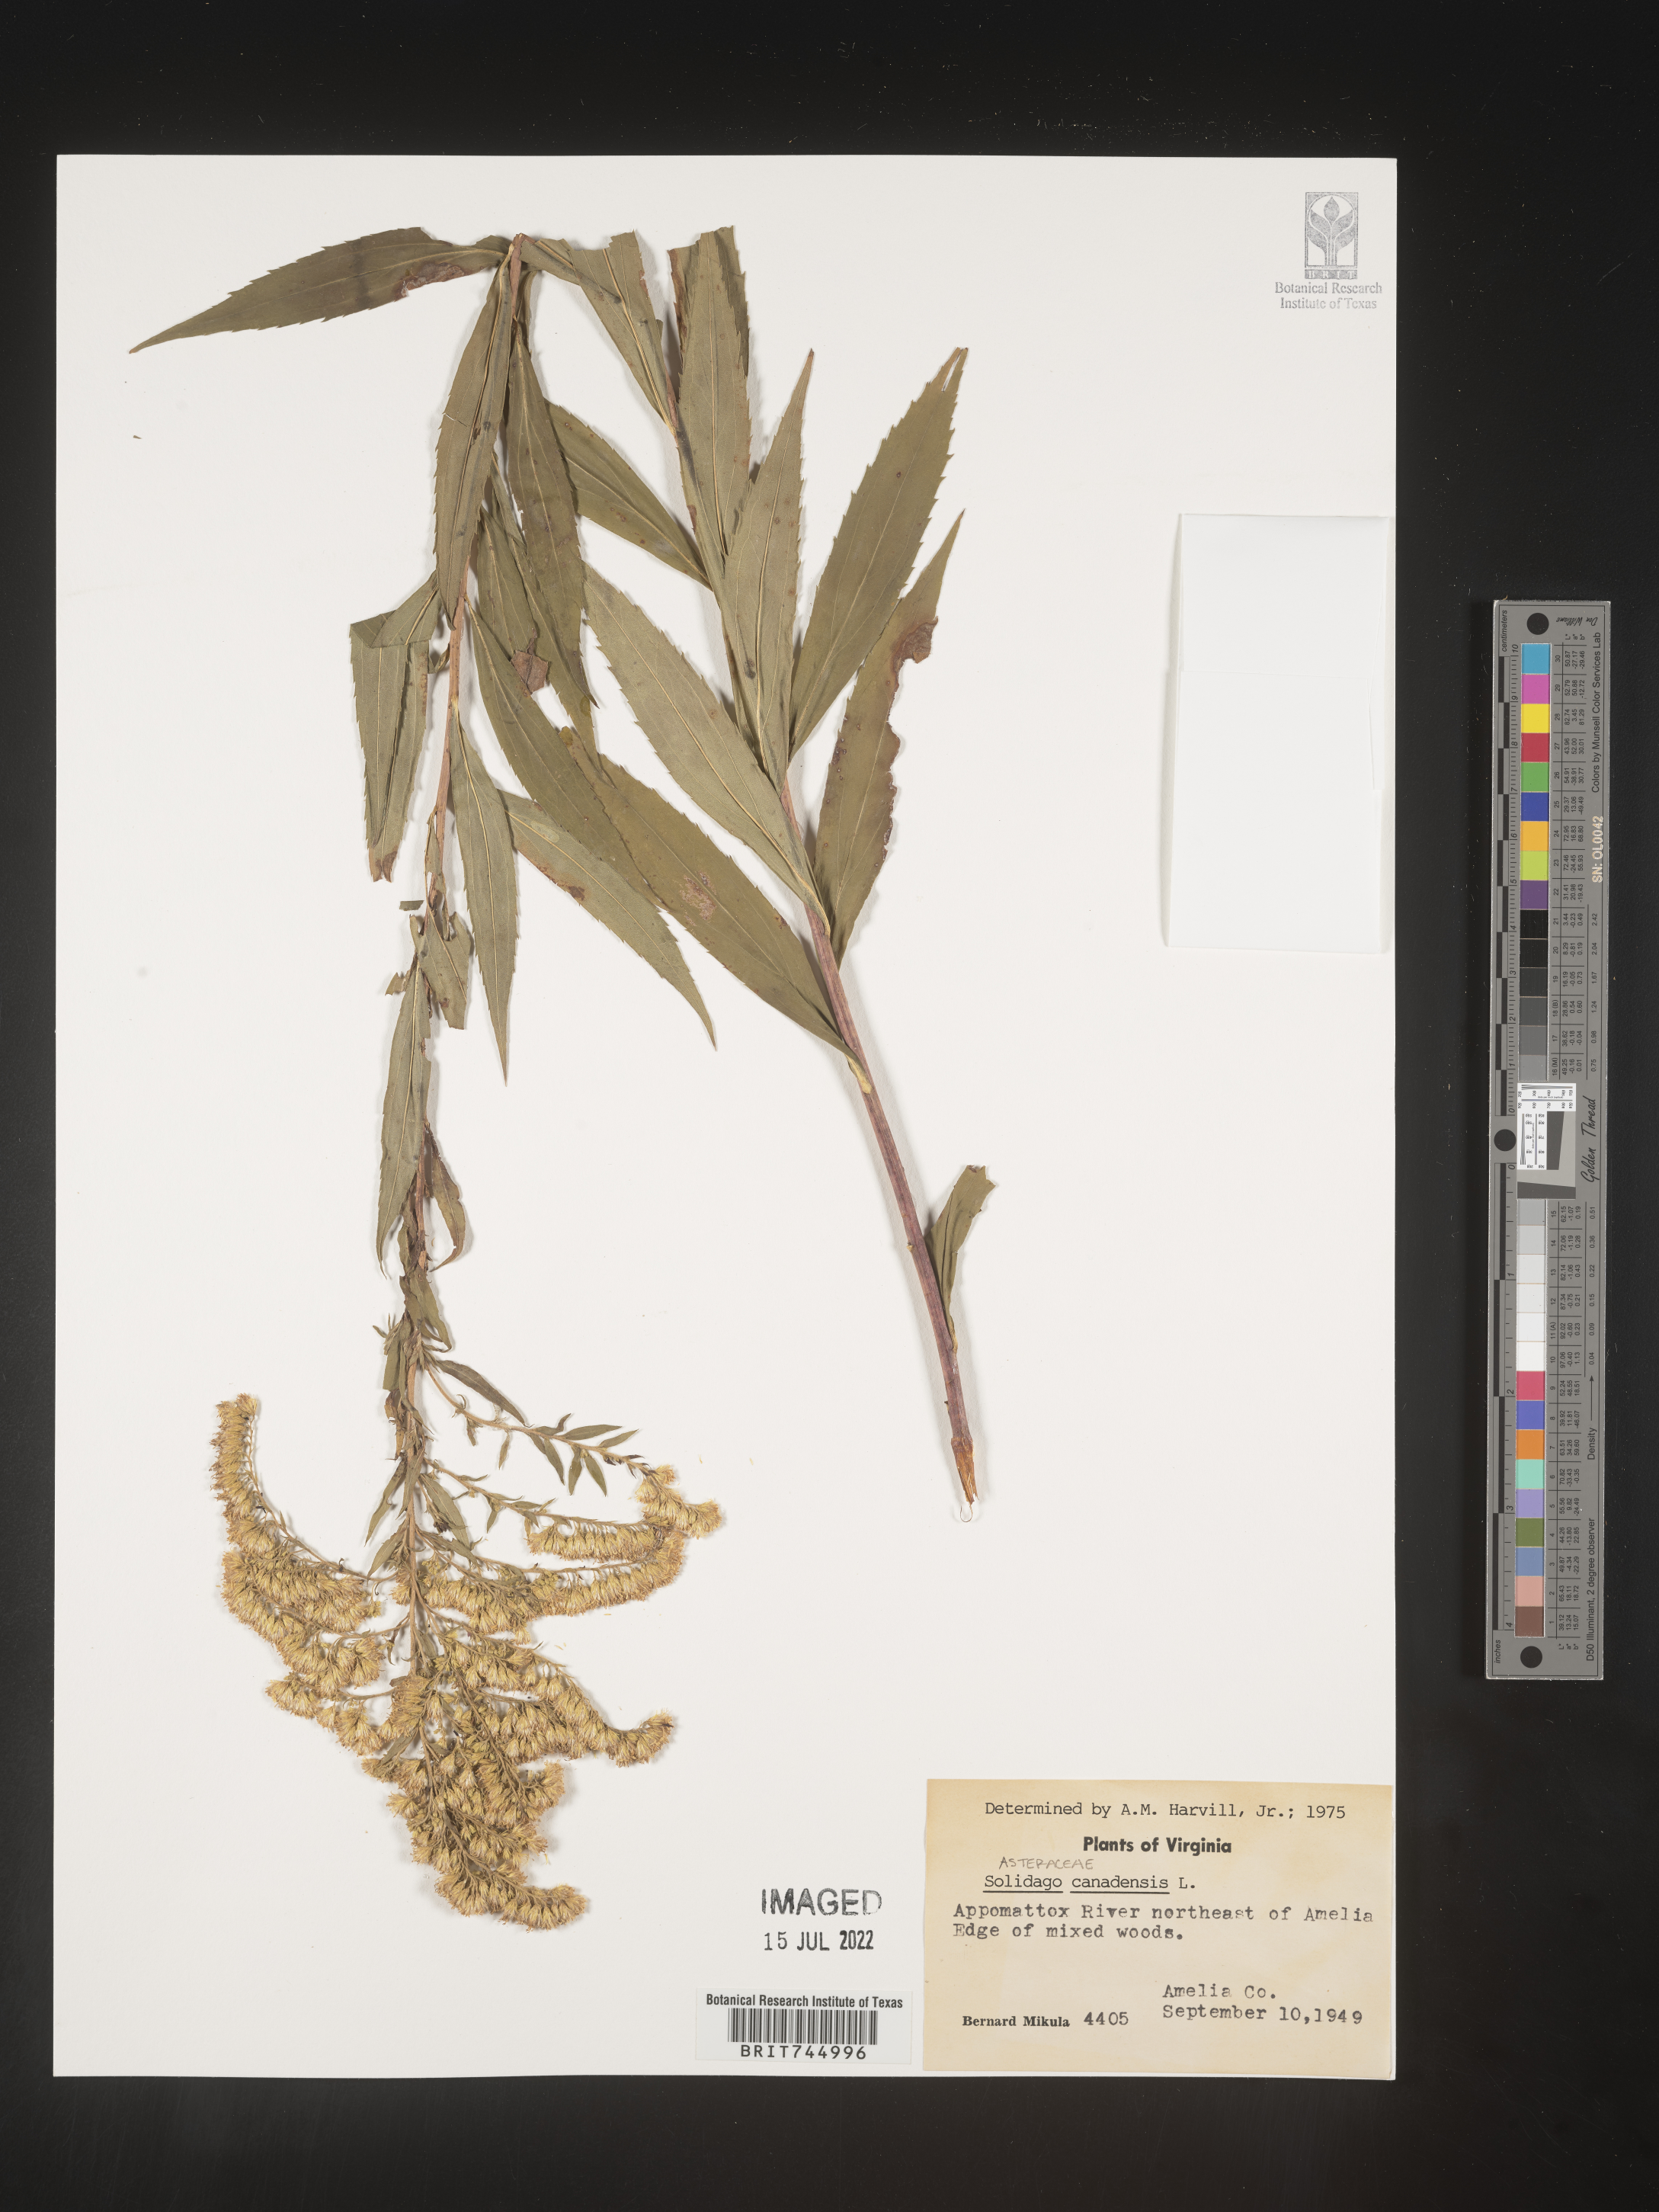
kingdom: Plantae
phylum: Tracheophyta
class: Magnoliopsida
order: Asterales
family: Asteraceae
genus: Solidago
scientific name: Solidago canadensis
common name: Canada goldenrod
